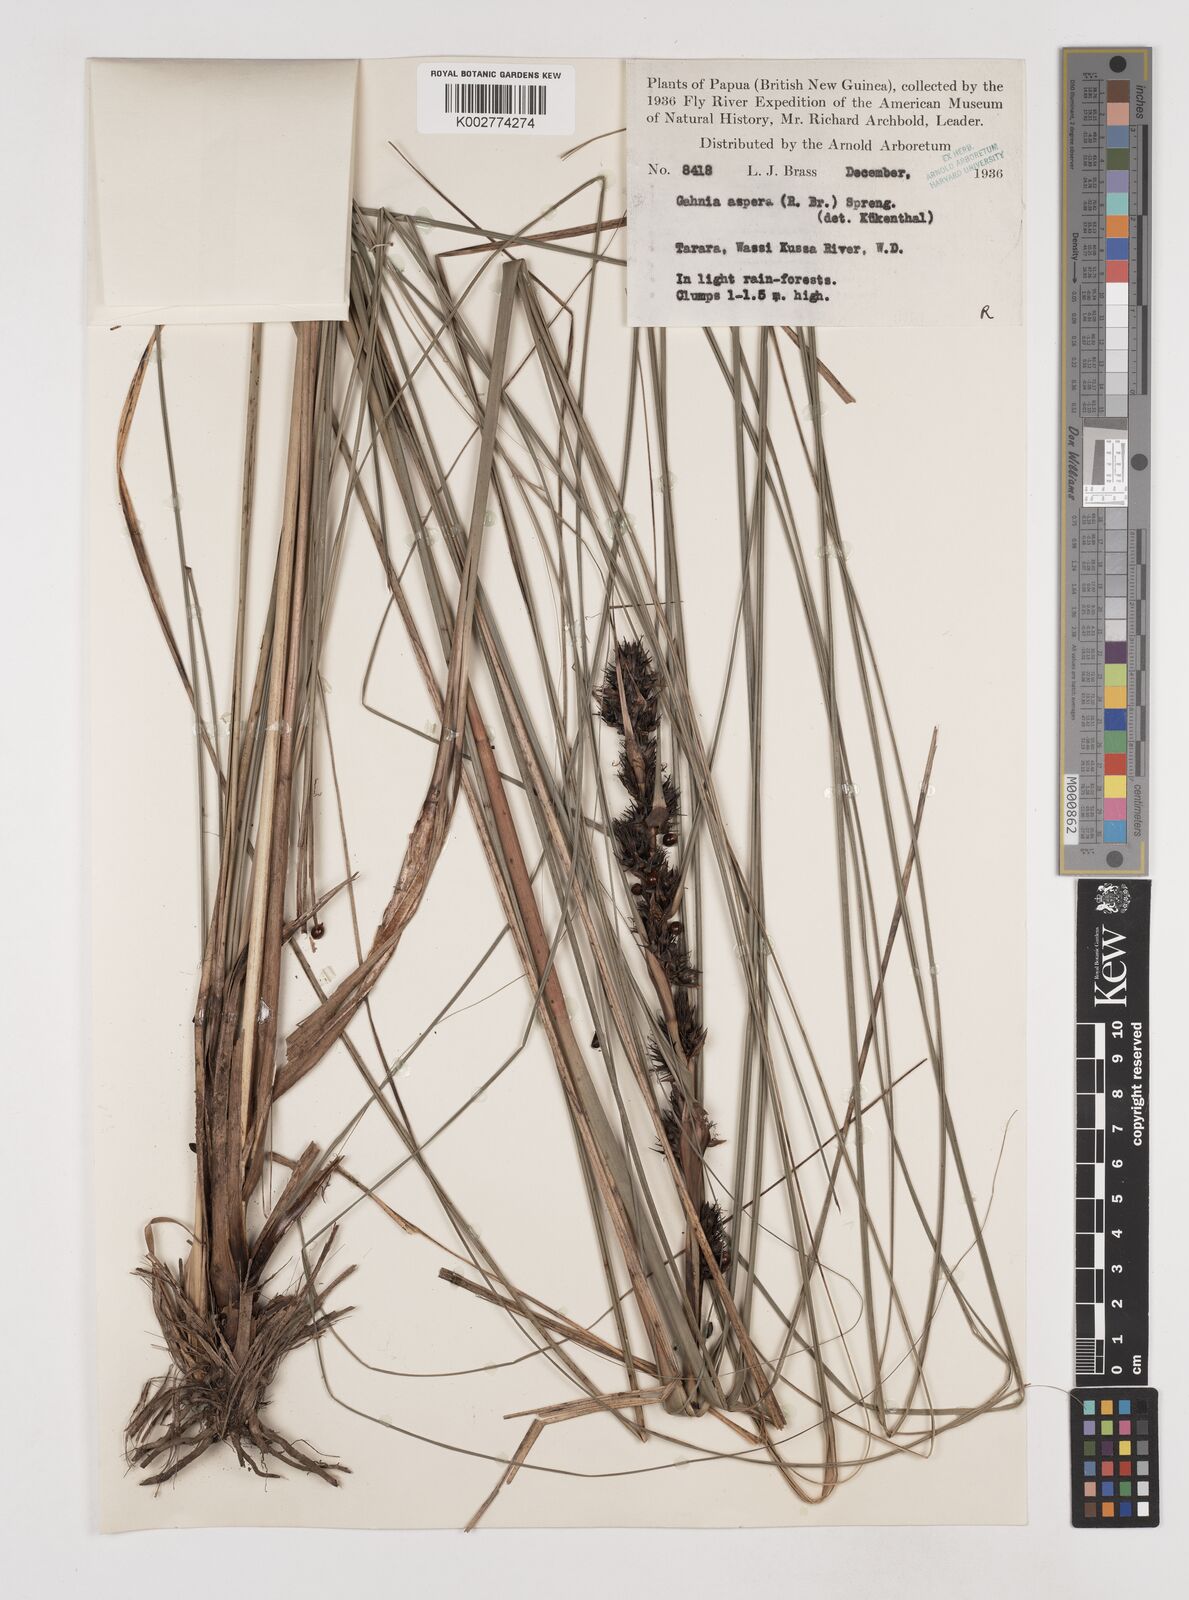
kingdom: Plantae
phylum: Tracheophyta
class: Liliopsida
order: Poales
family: Cyperaceae
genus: Gahnia
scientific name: Gahnia aspera
